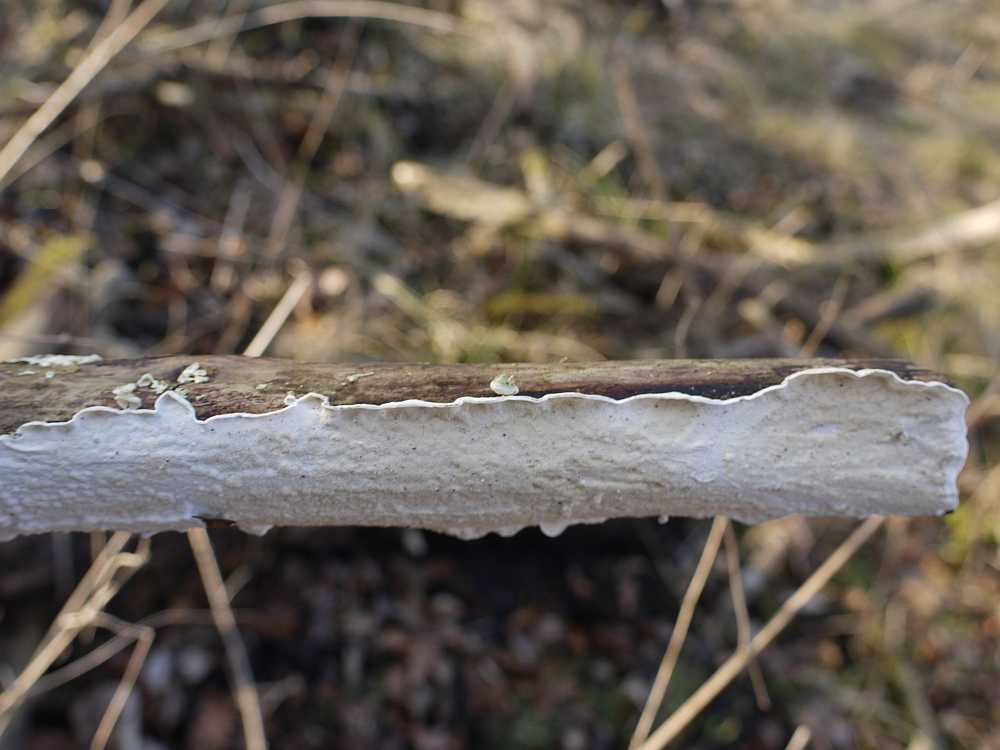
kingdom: Fungi
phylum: Basidiomycota
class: Agaricomycetes
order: Polyporales
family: Irpicaceae
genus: Byssomerulius
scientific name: Byssomerulius corium
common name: læder-åresvamp
